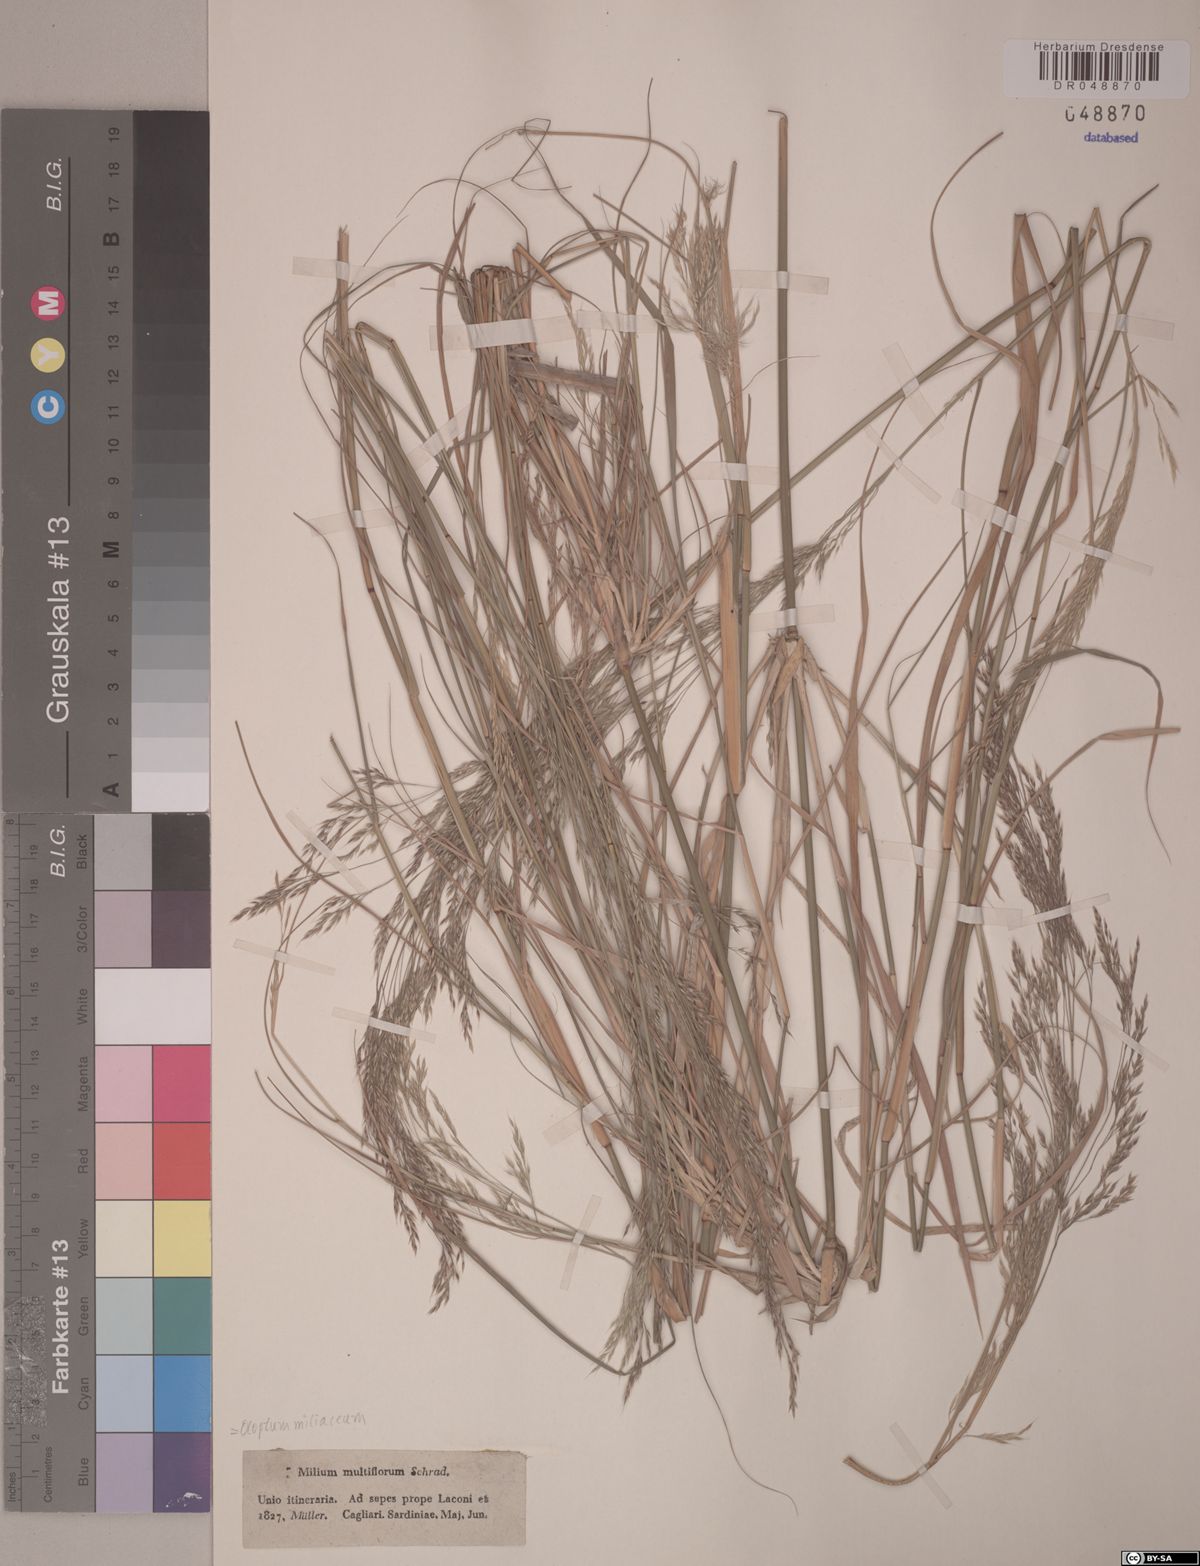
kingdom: Plantae
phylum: Tracheophyta
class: Liliopsida
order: Poales
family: Poaceae
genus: Oloptum
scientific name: Oloptum miliaceum
